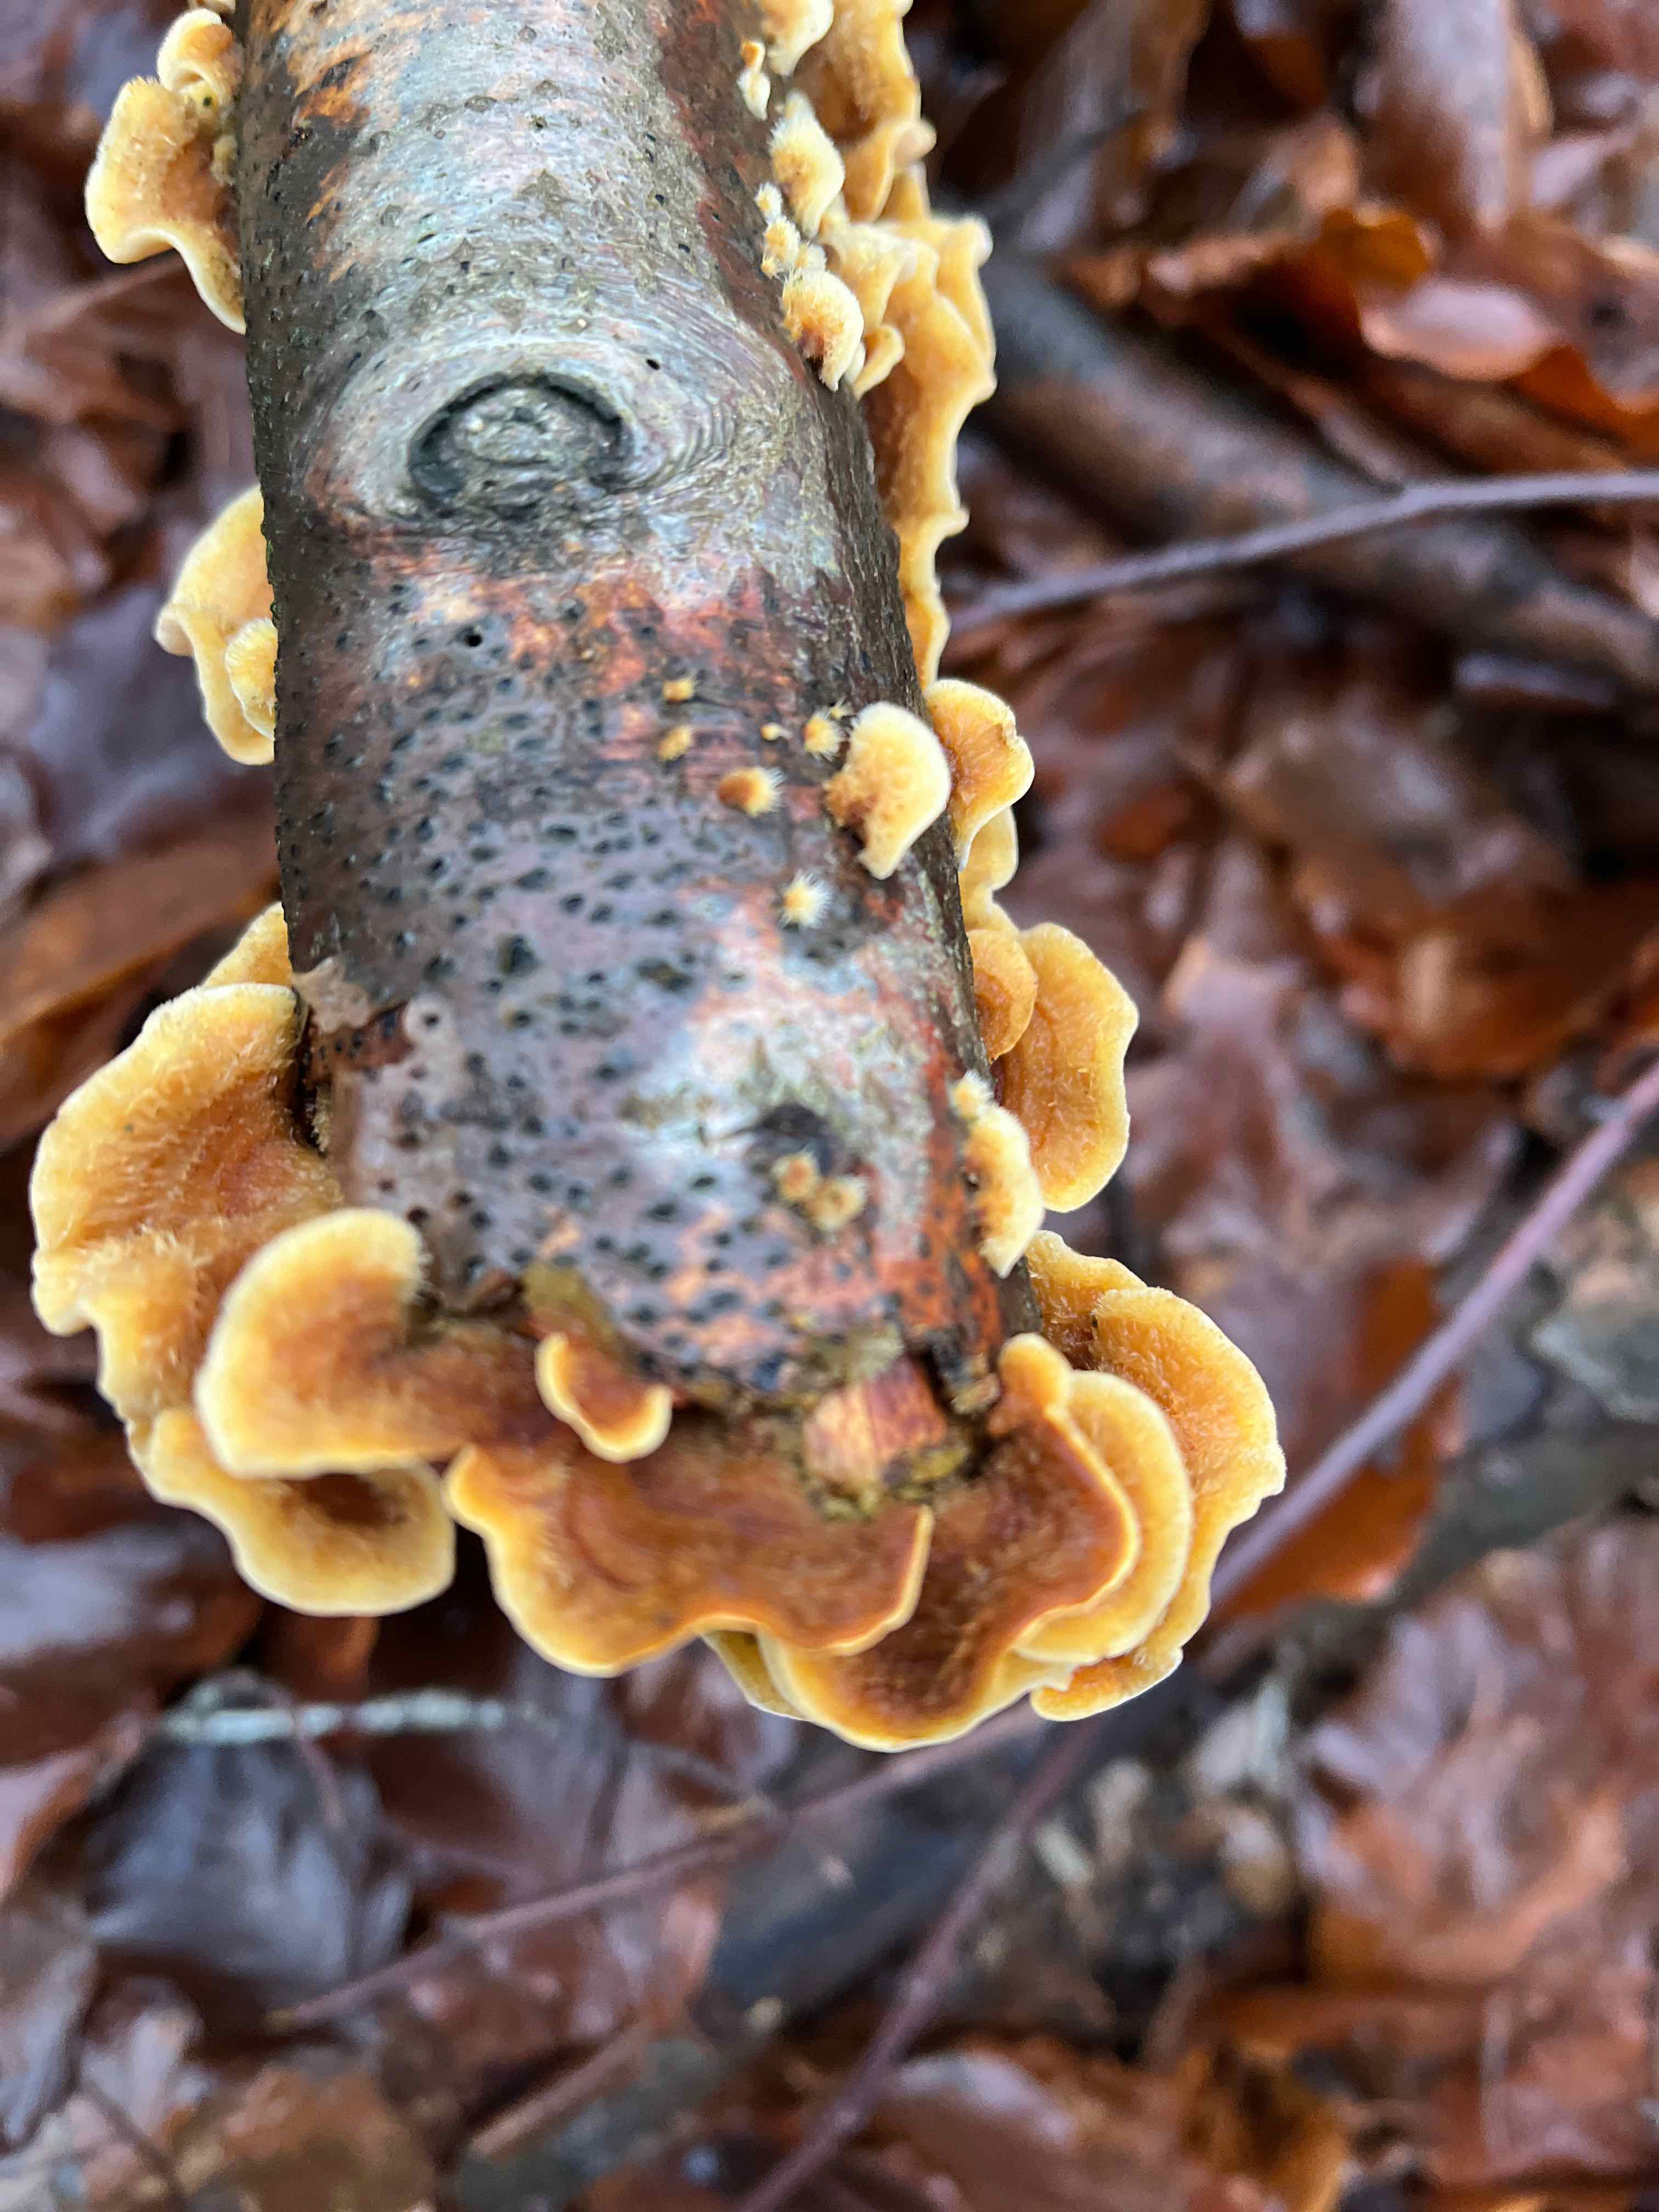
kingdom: Fungi
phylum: Basidiomycota
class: Agaricomycetes
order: Russulales
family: Stereaceae
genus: Stereum
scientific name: Stereum hirsutum
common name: håret lædersvamp
